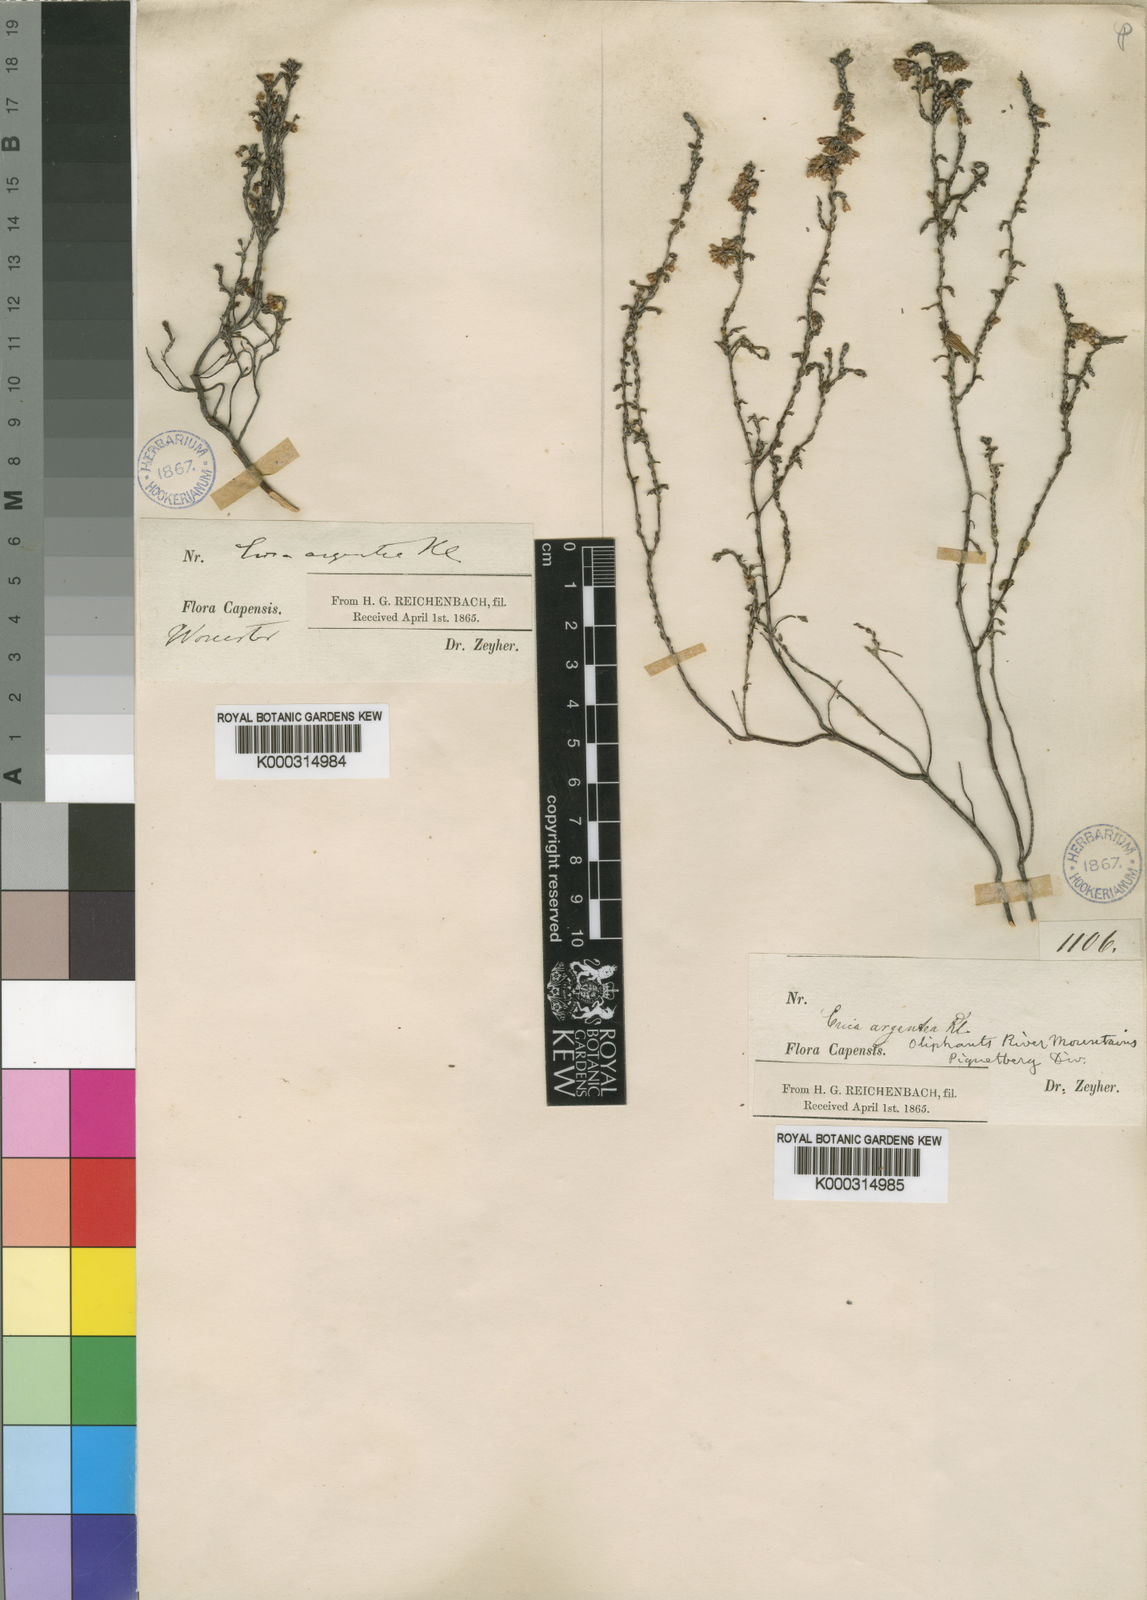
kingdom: Plantae
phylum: Tracheophyta
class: Magnoliopsida
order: Ericales
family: Ericaceae
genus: Erica
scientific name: Erica argentea
